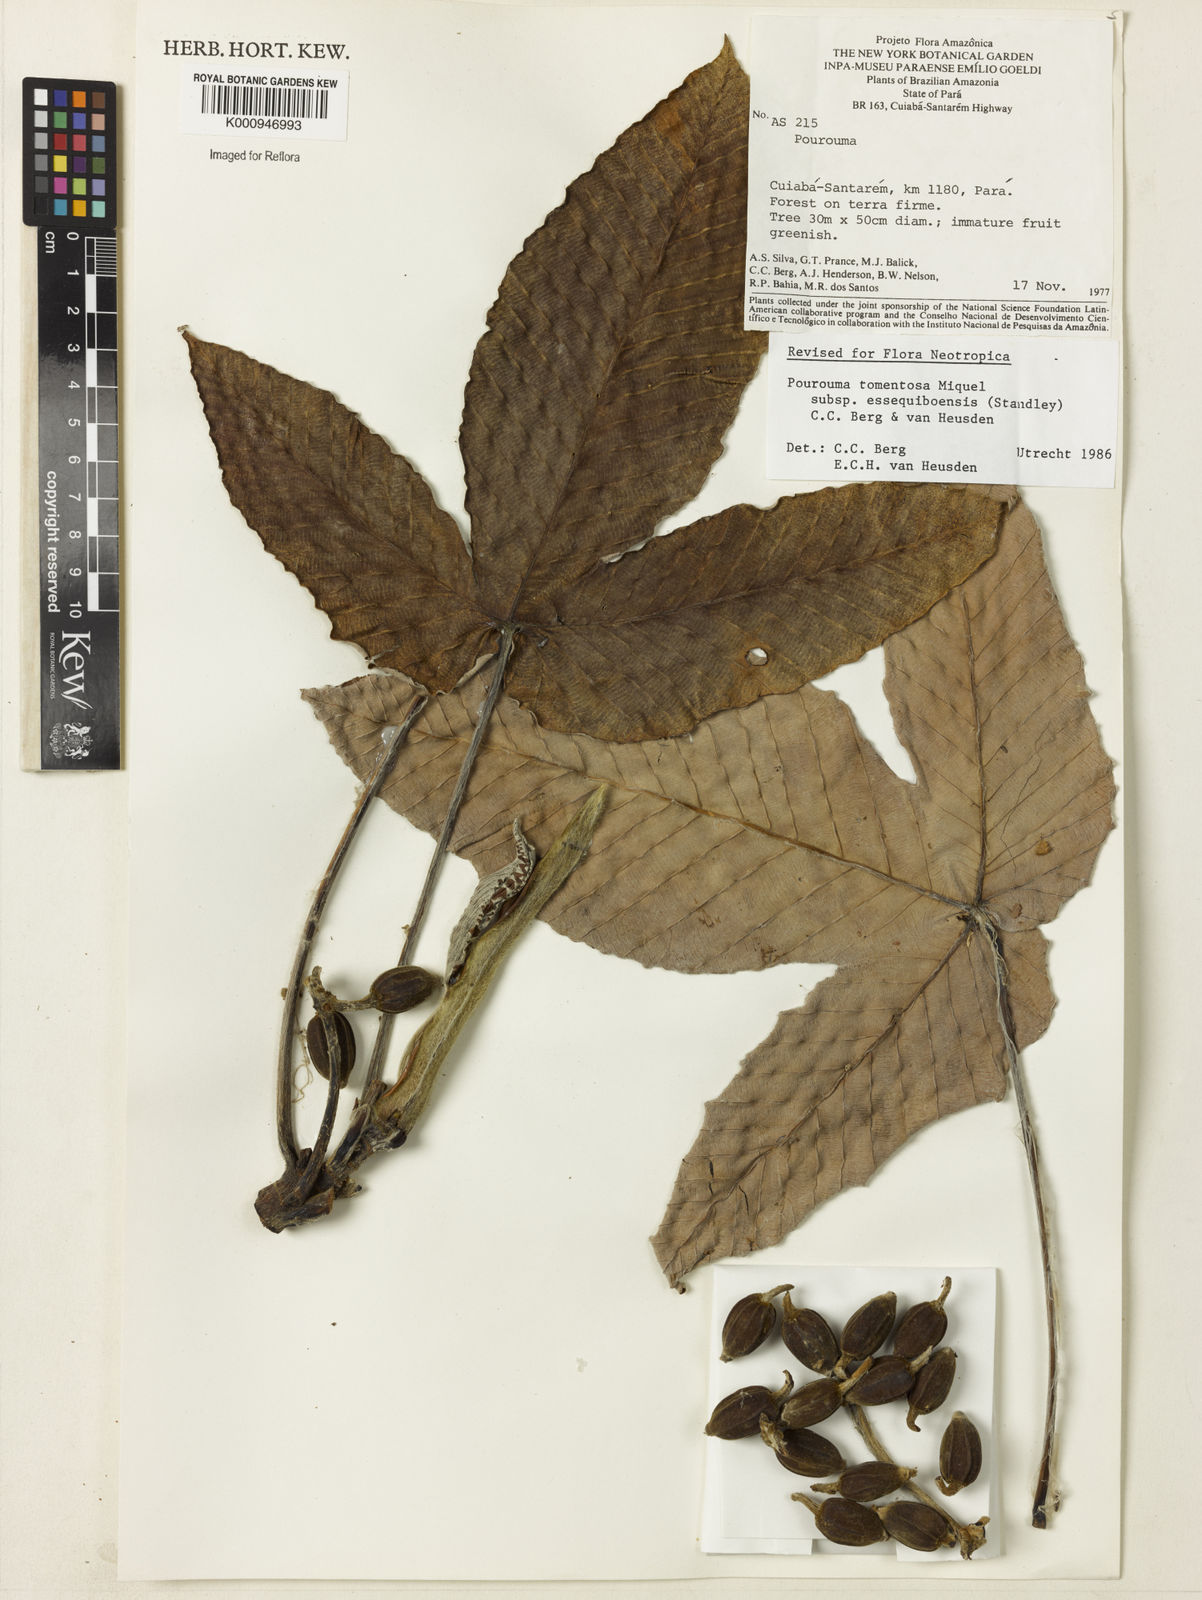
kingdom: Plantae
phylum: Tracheophyta
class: Magnoliopsida
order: Rosales
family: Urticaceae
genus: Pourouma
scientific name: Pourouma tomentosa
